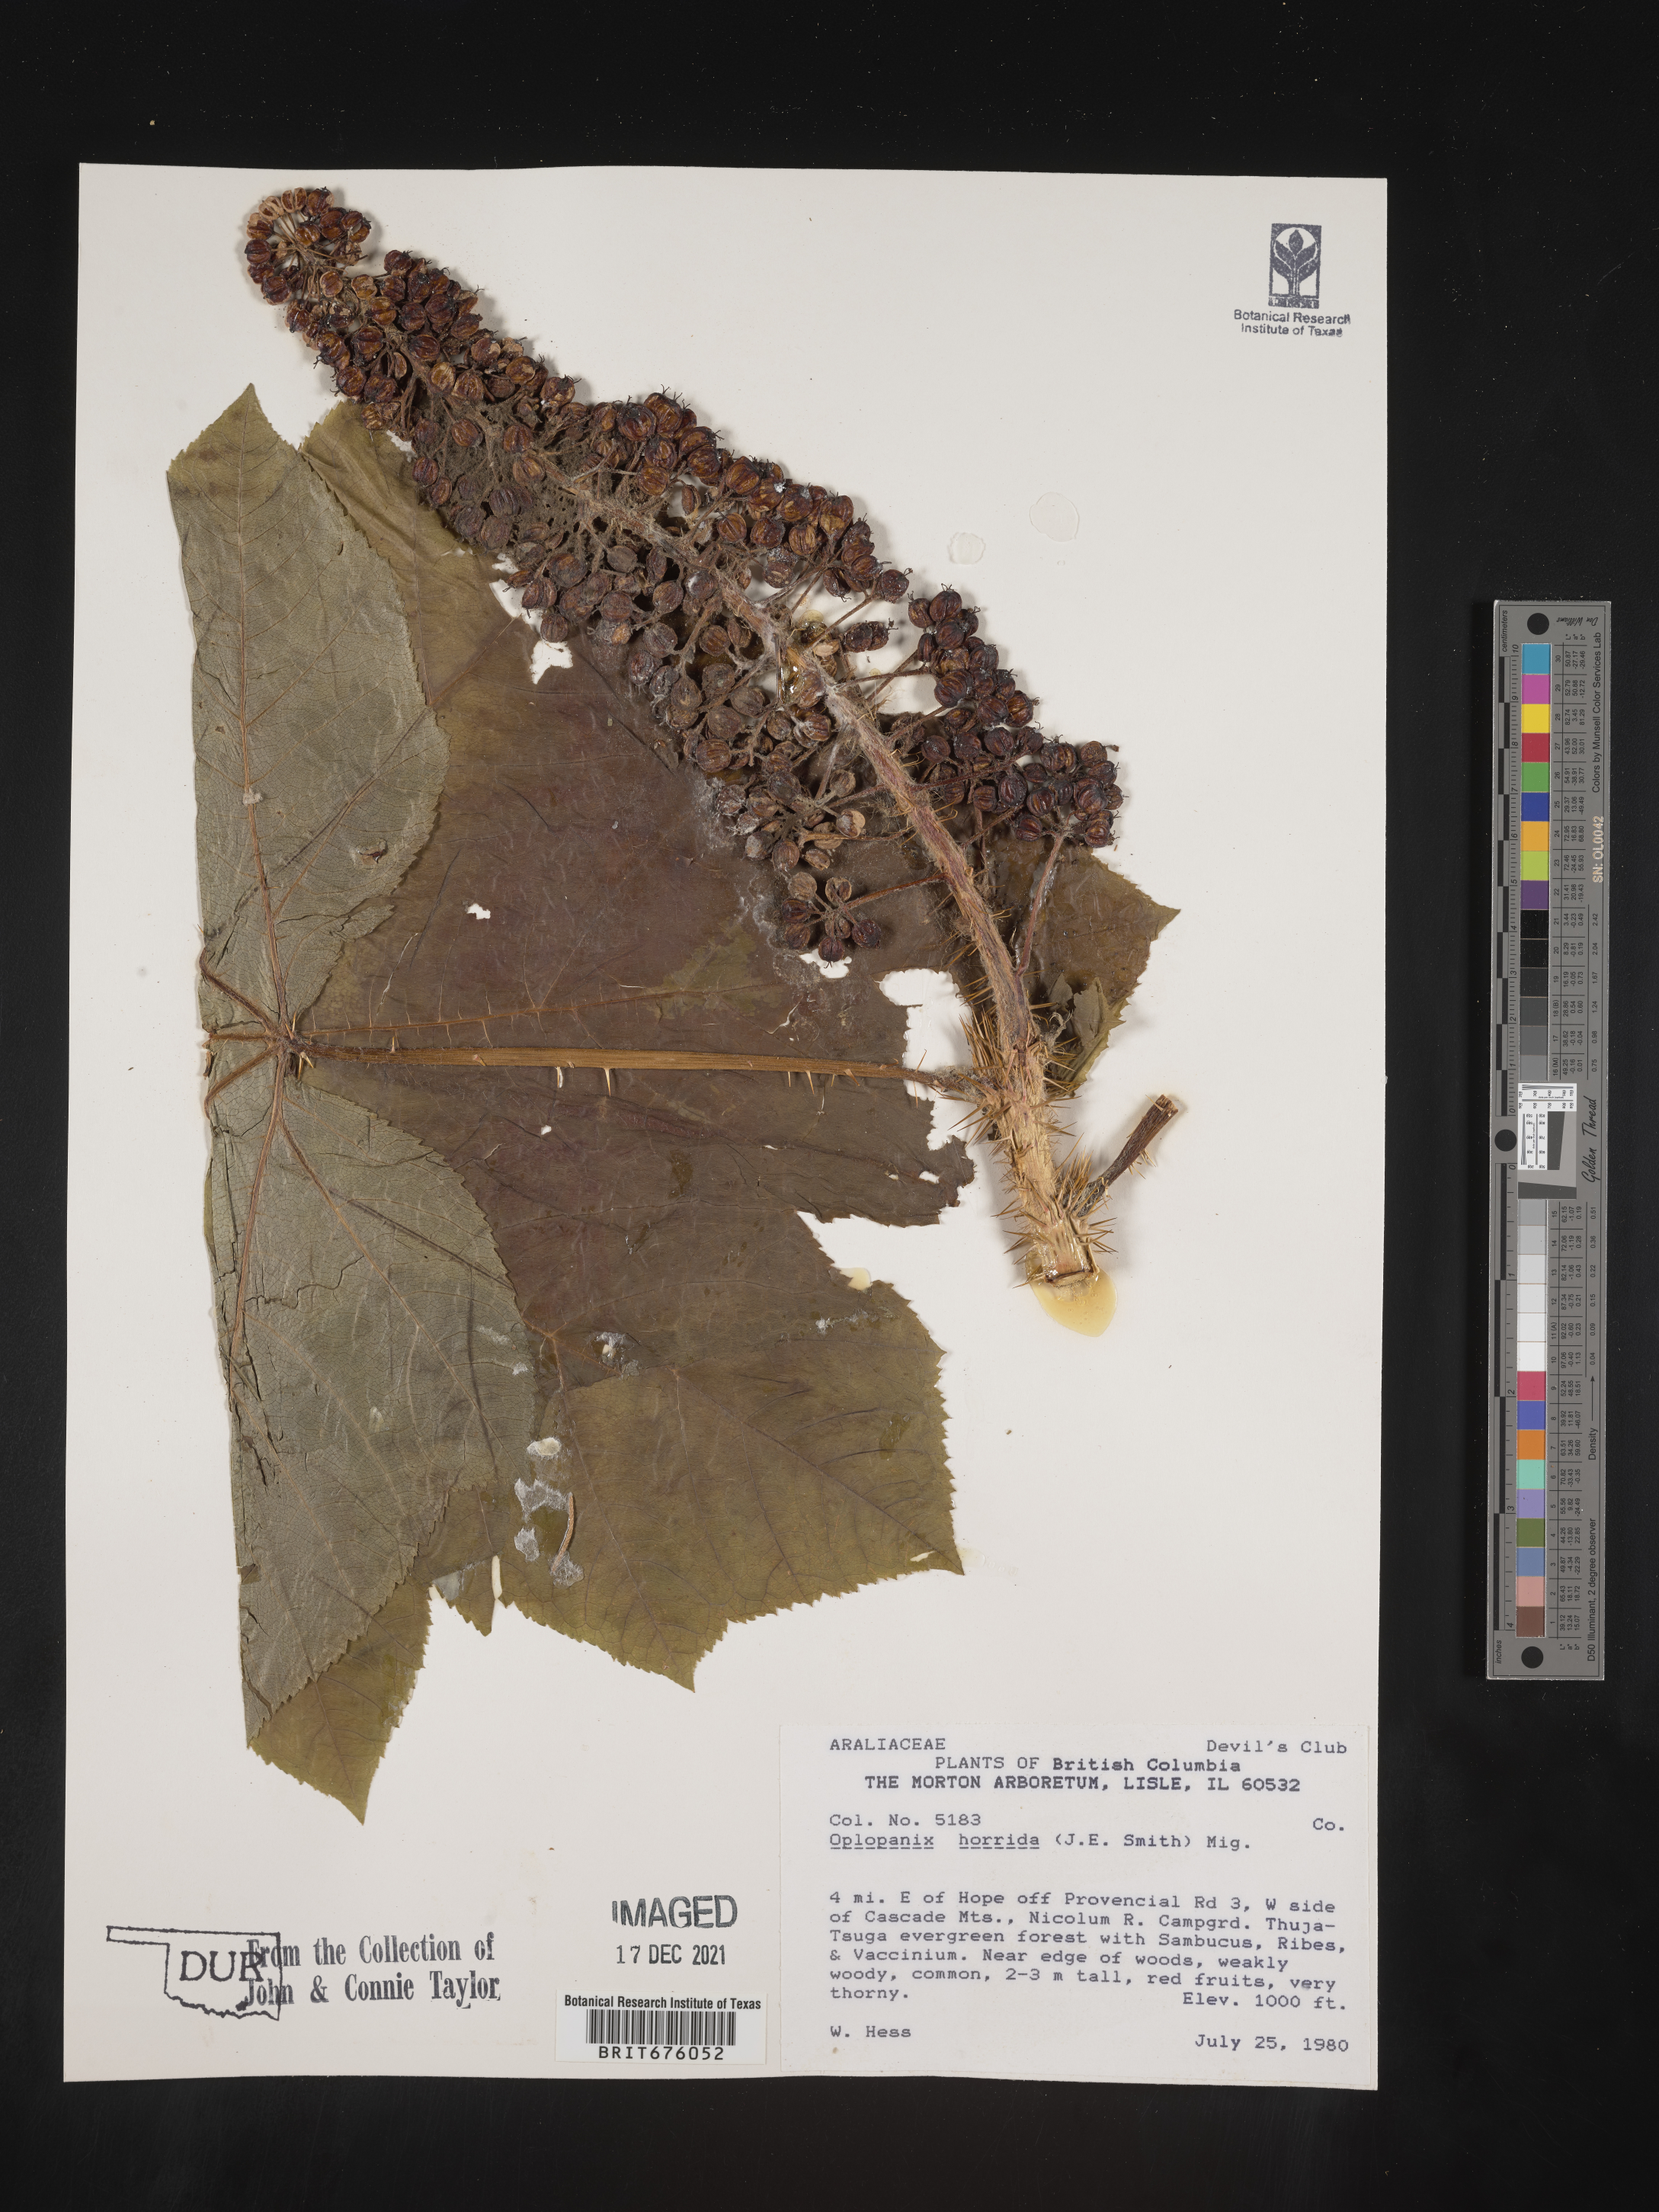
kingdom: Plantae
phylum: Tracheophyta
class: Magnoliopsida
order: Apiales
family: Araliaceae
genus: Oplopanax
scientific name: Oplopanax
